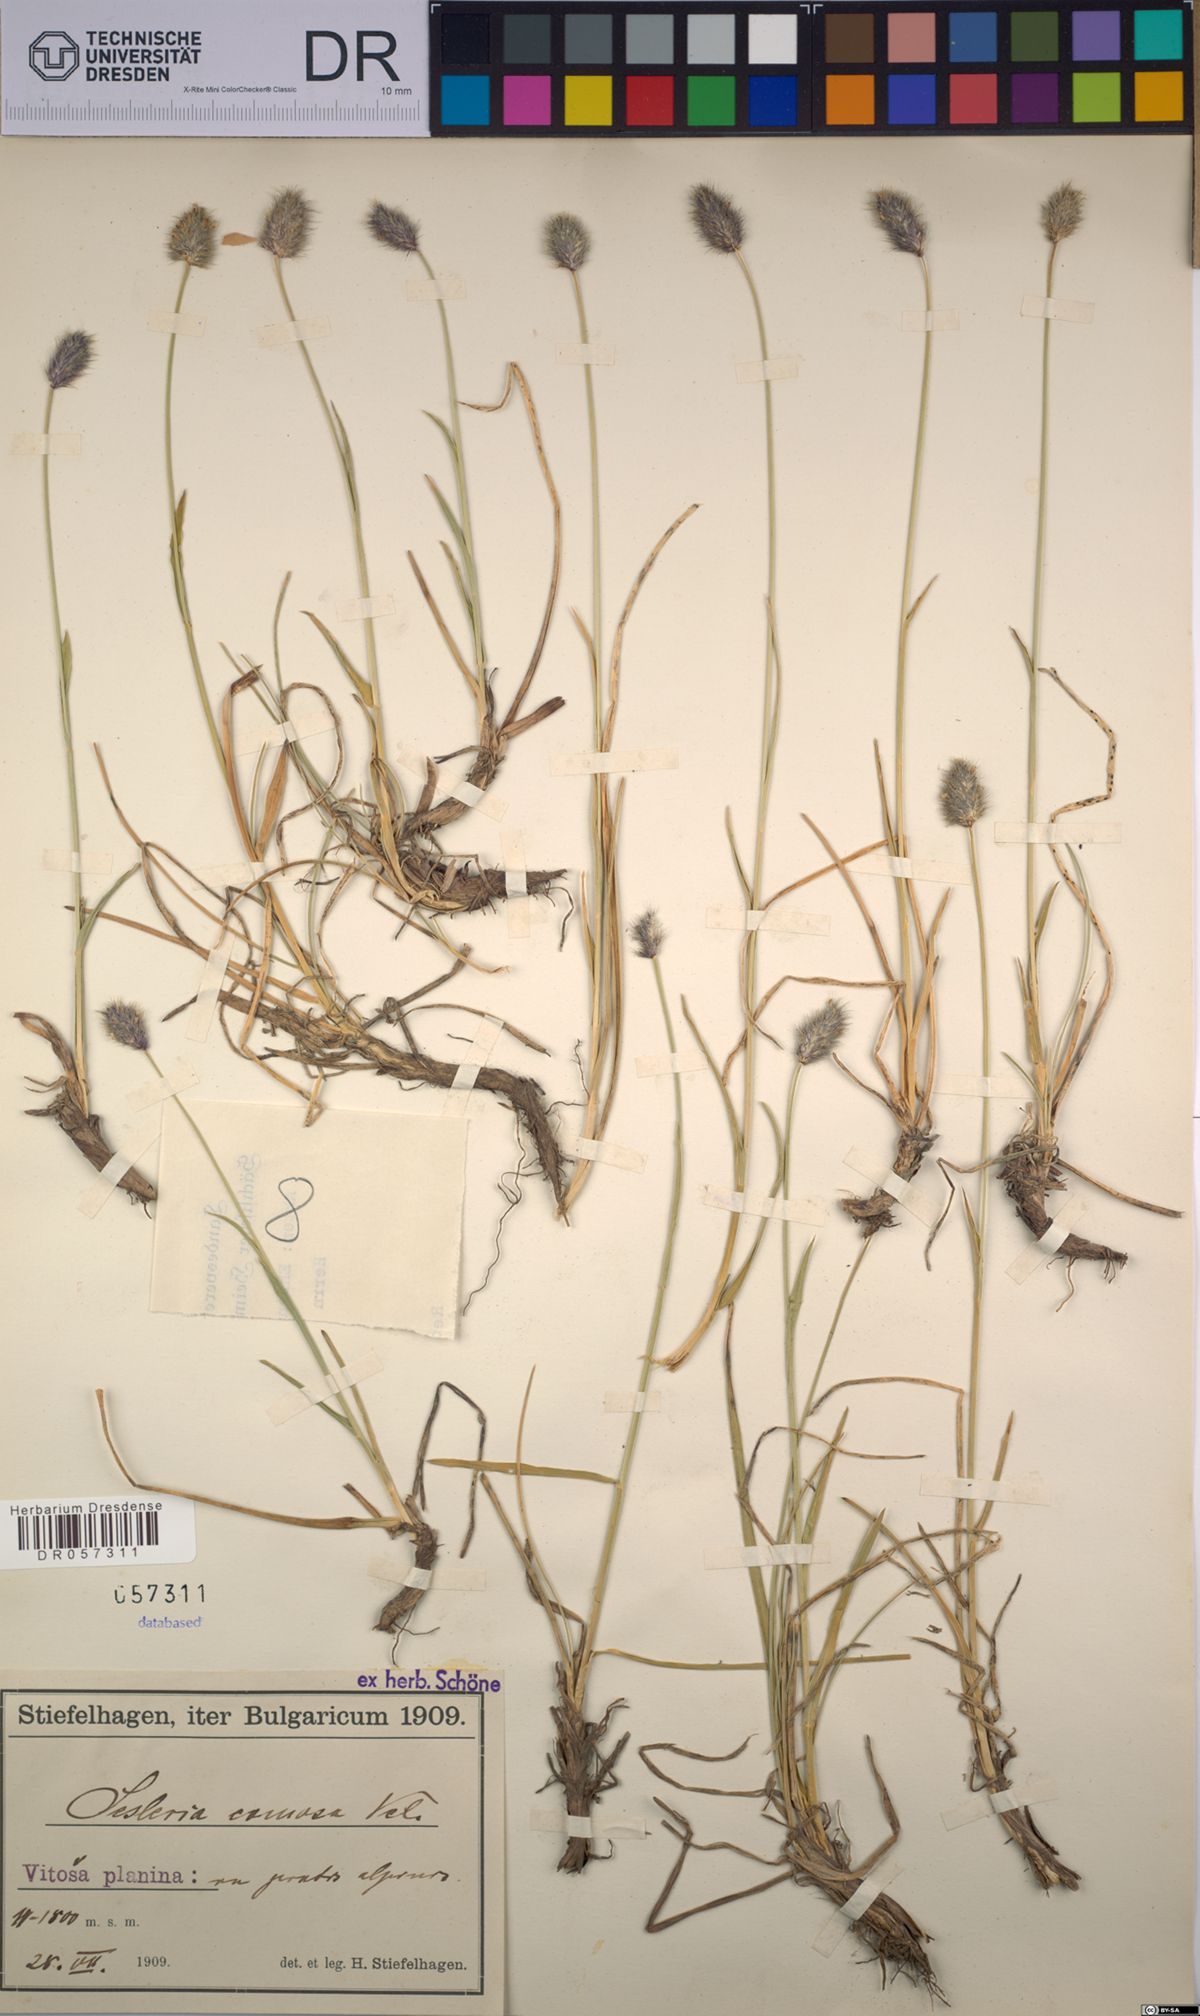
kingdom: Plantae
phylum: Tracheophyta
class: Liliopsida
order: Poales
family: Poaceae
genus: Sesleria
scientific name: Sesleria comosa
